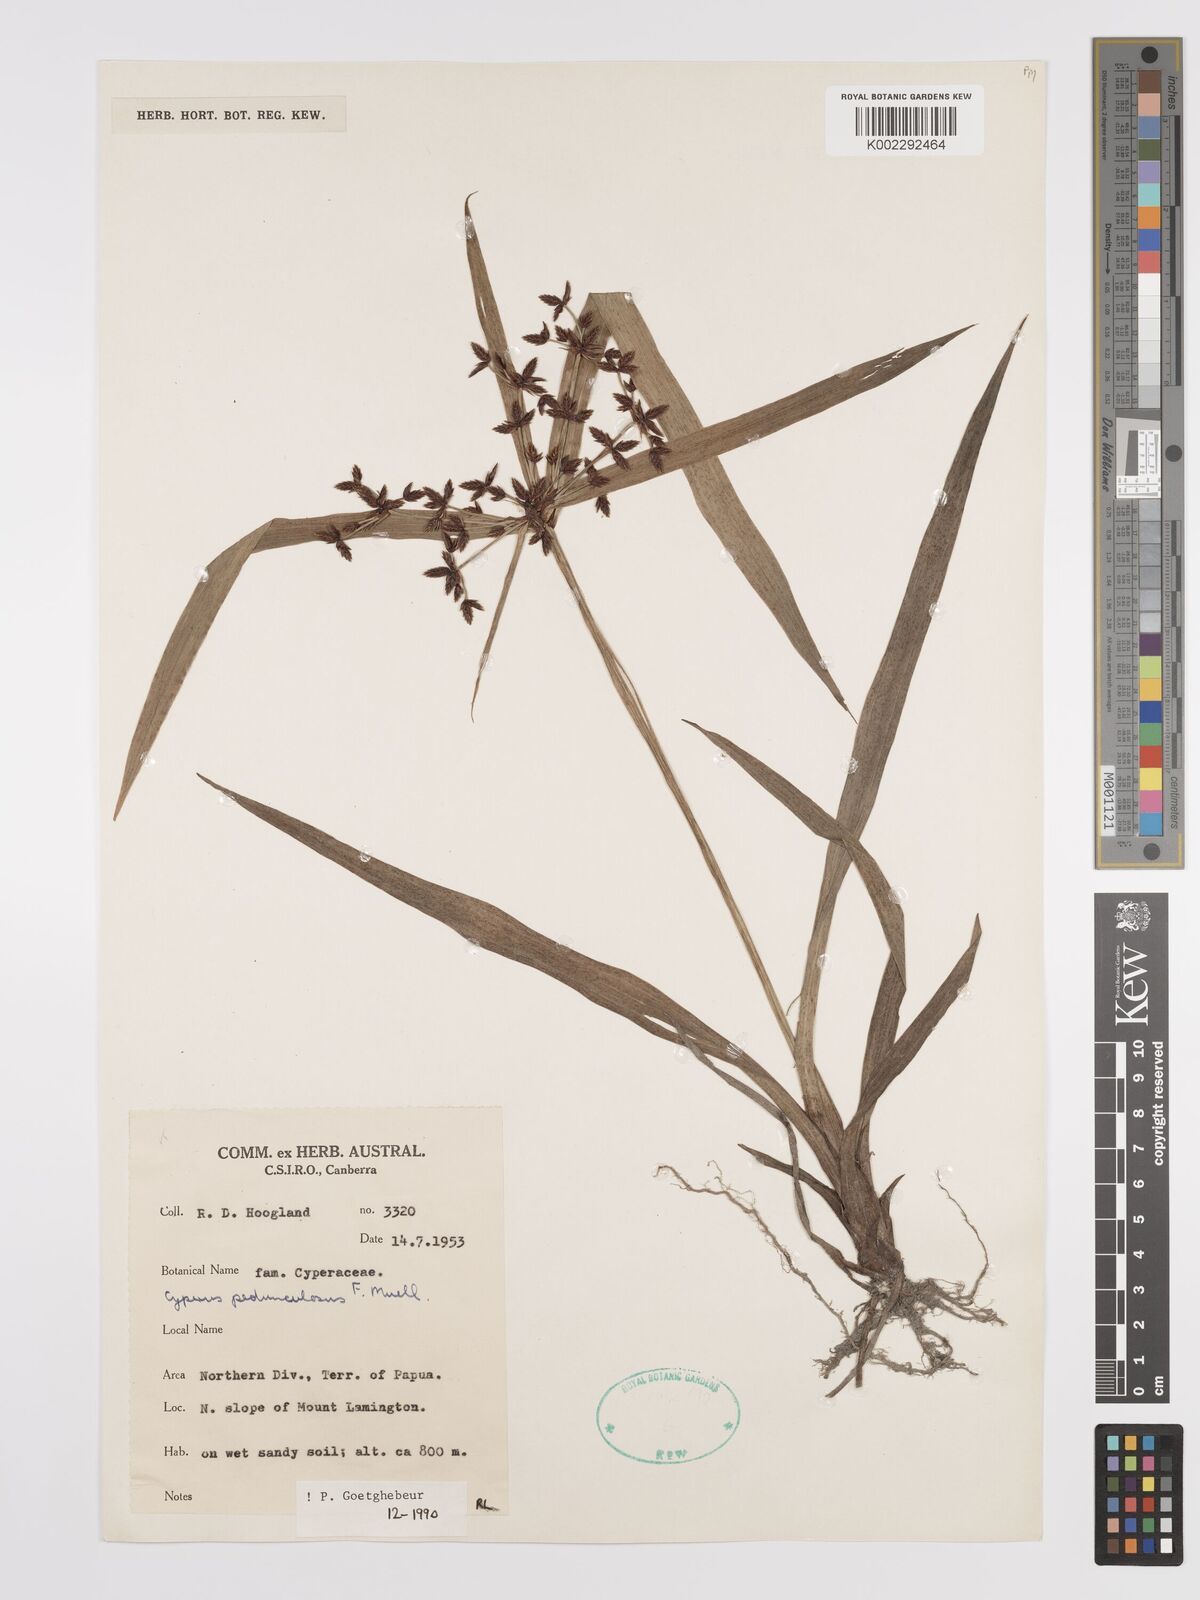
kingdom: Plantae
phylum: Tracheophyta
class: Liliopsida
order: Poales
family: Cyperaceae
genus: Cyperus
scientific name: Cyperus pedunculosus
